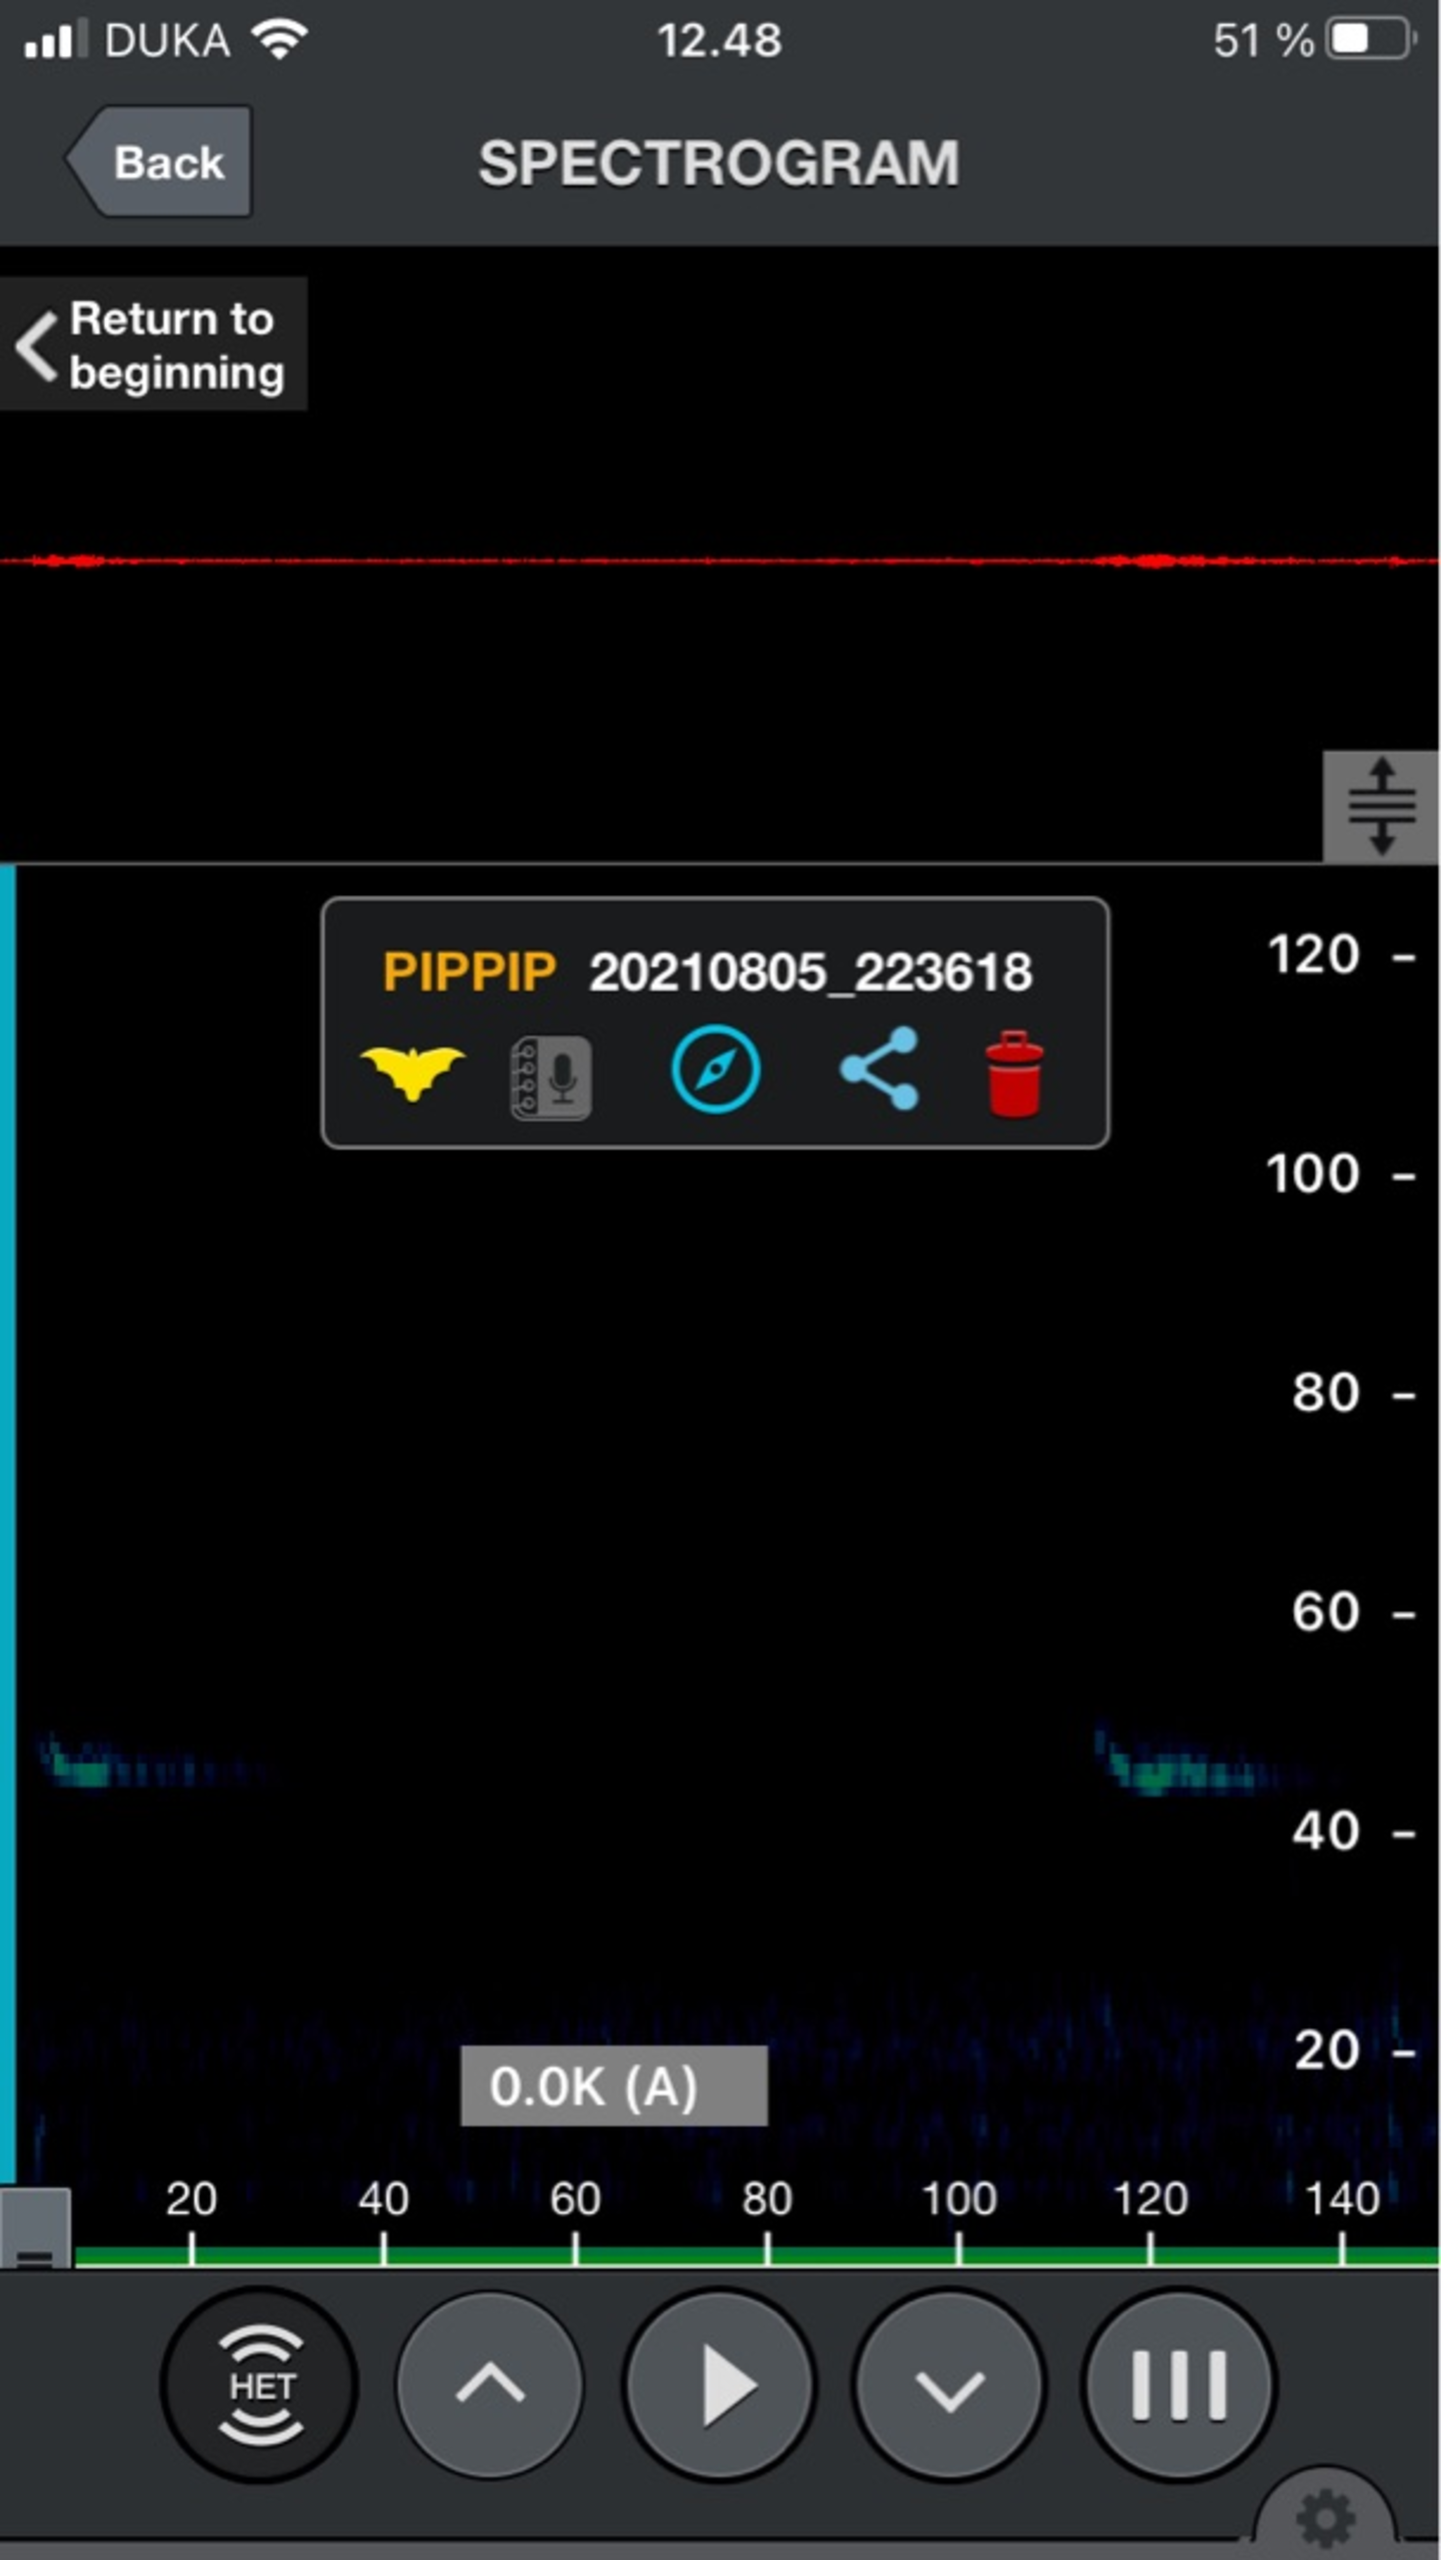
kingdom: Animalia
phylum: Chordata
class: Mammalia
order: Chiroptera
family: Vespertilionidae
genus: Pipistrellus
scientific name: Pipistrellus pipistrellus
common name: Pipistrelflagermus
